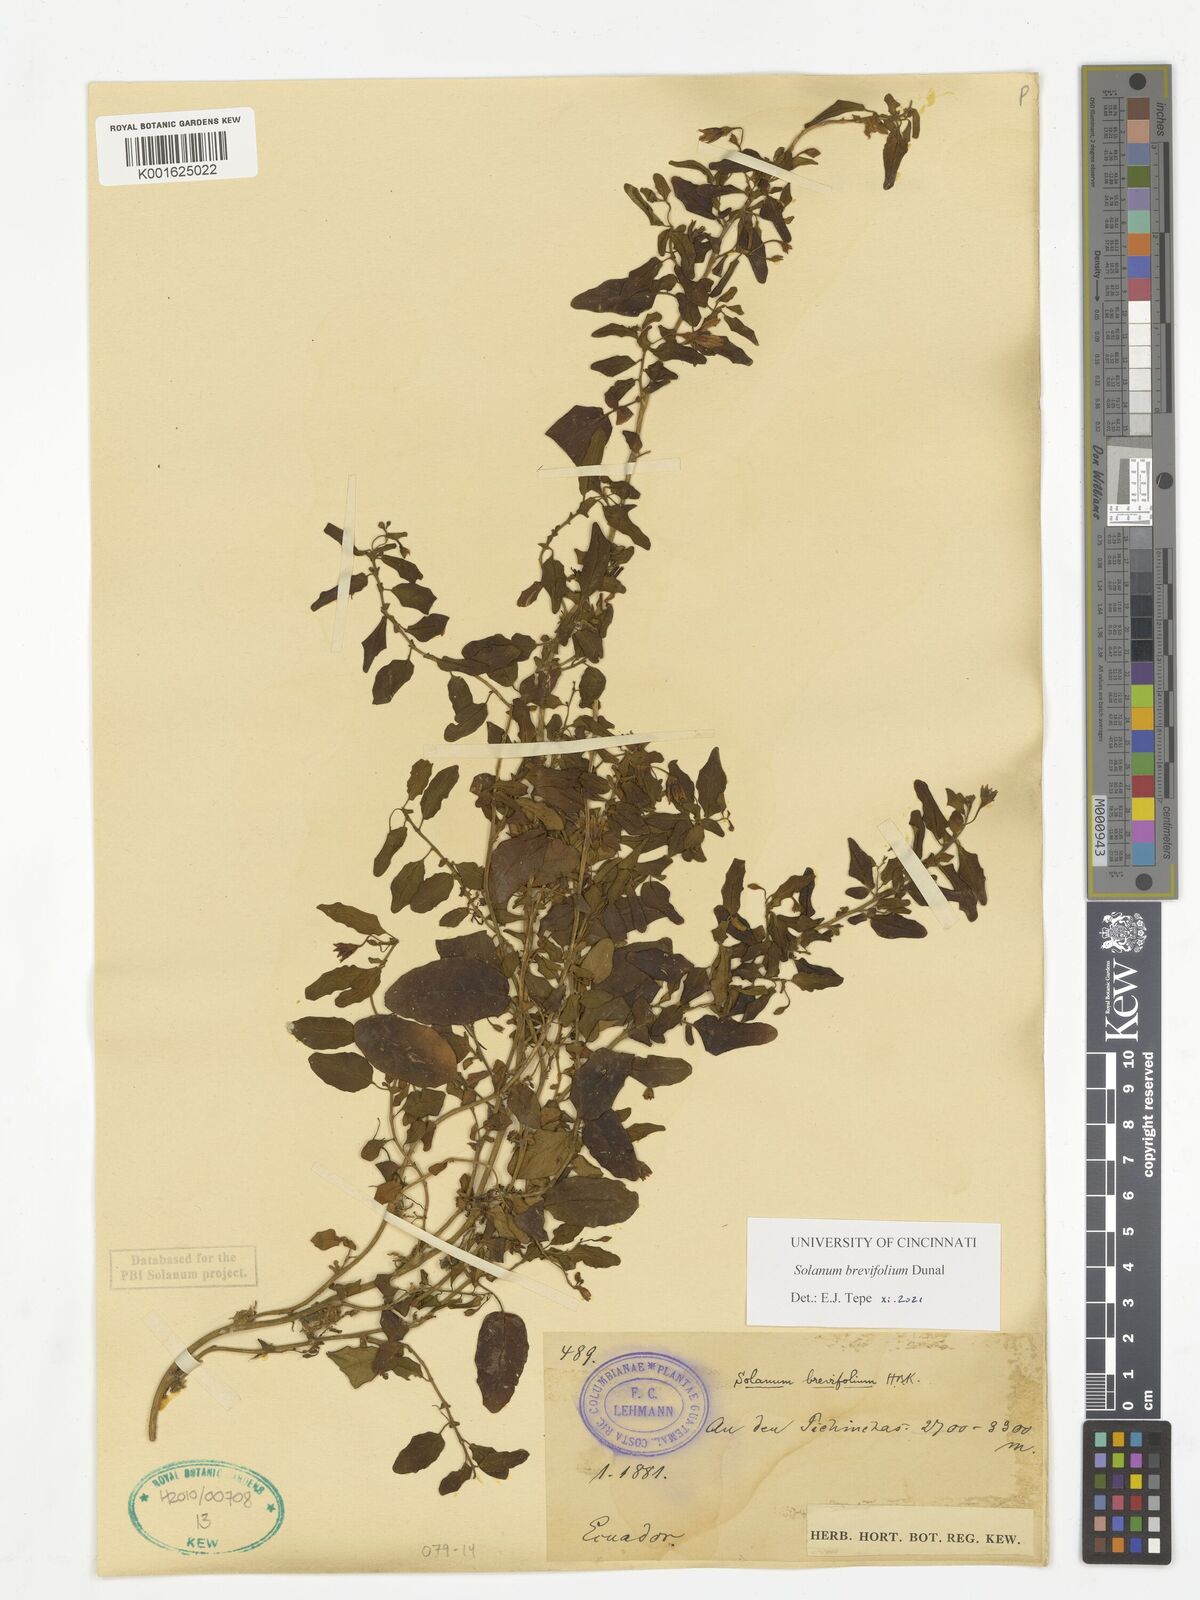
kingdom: Plantae
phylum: Tracheophyta
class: Magnoliopsida
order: Solanales
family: Solanaceae
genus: Solanum
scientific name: Solanum brevifolium
